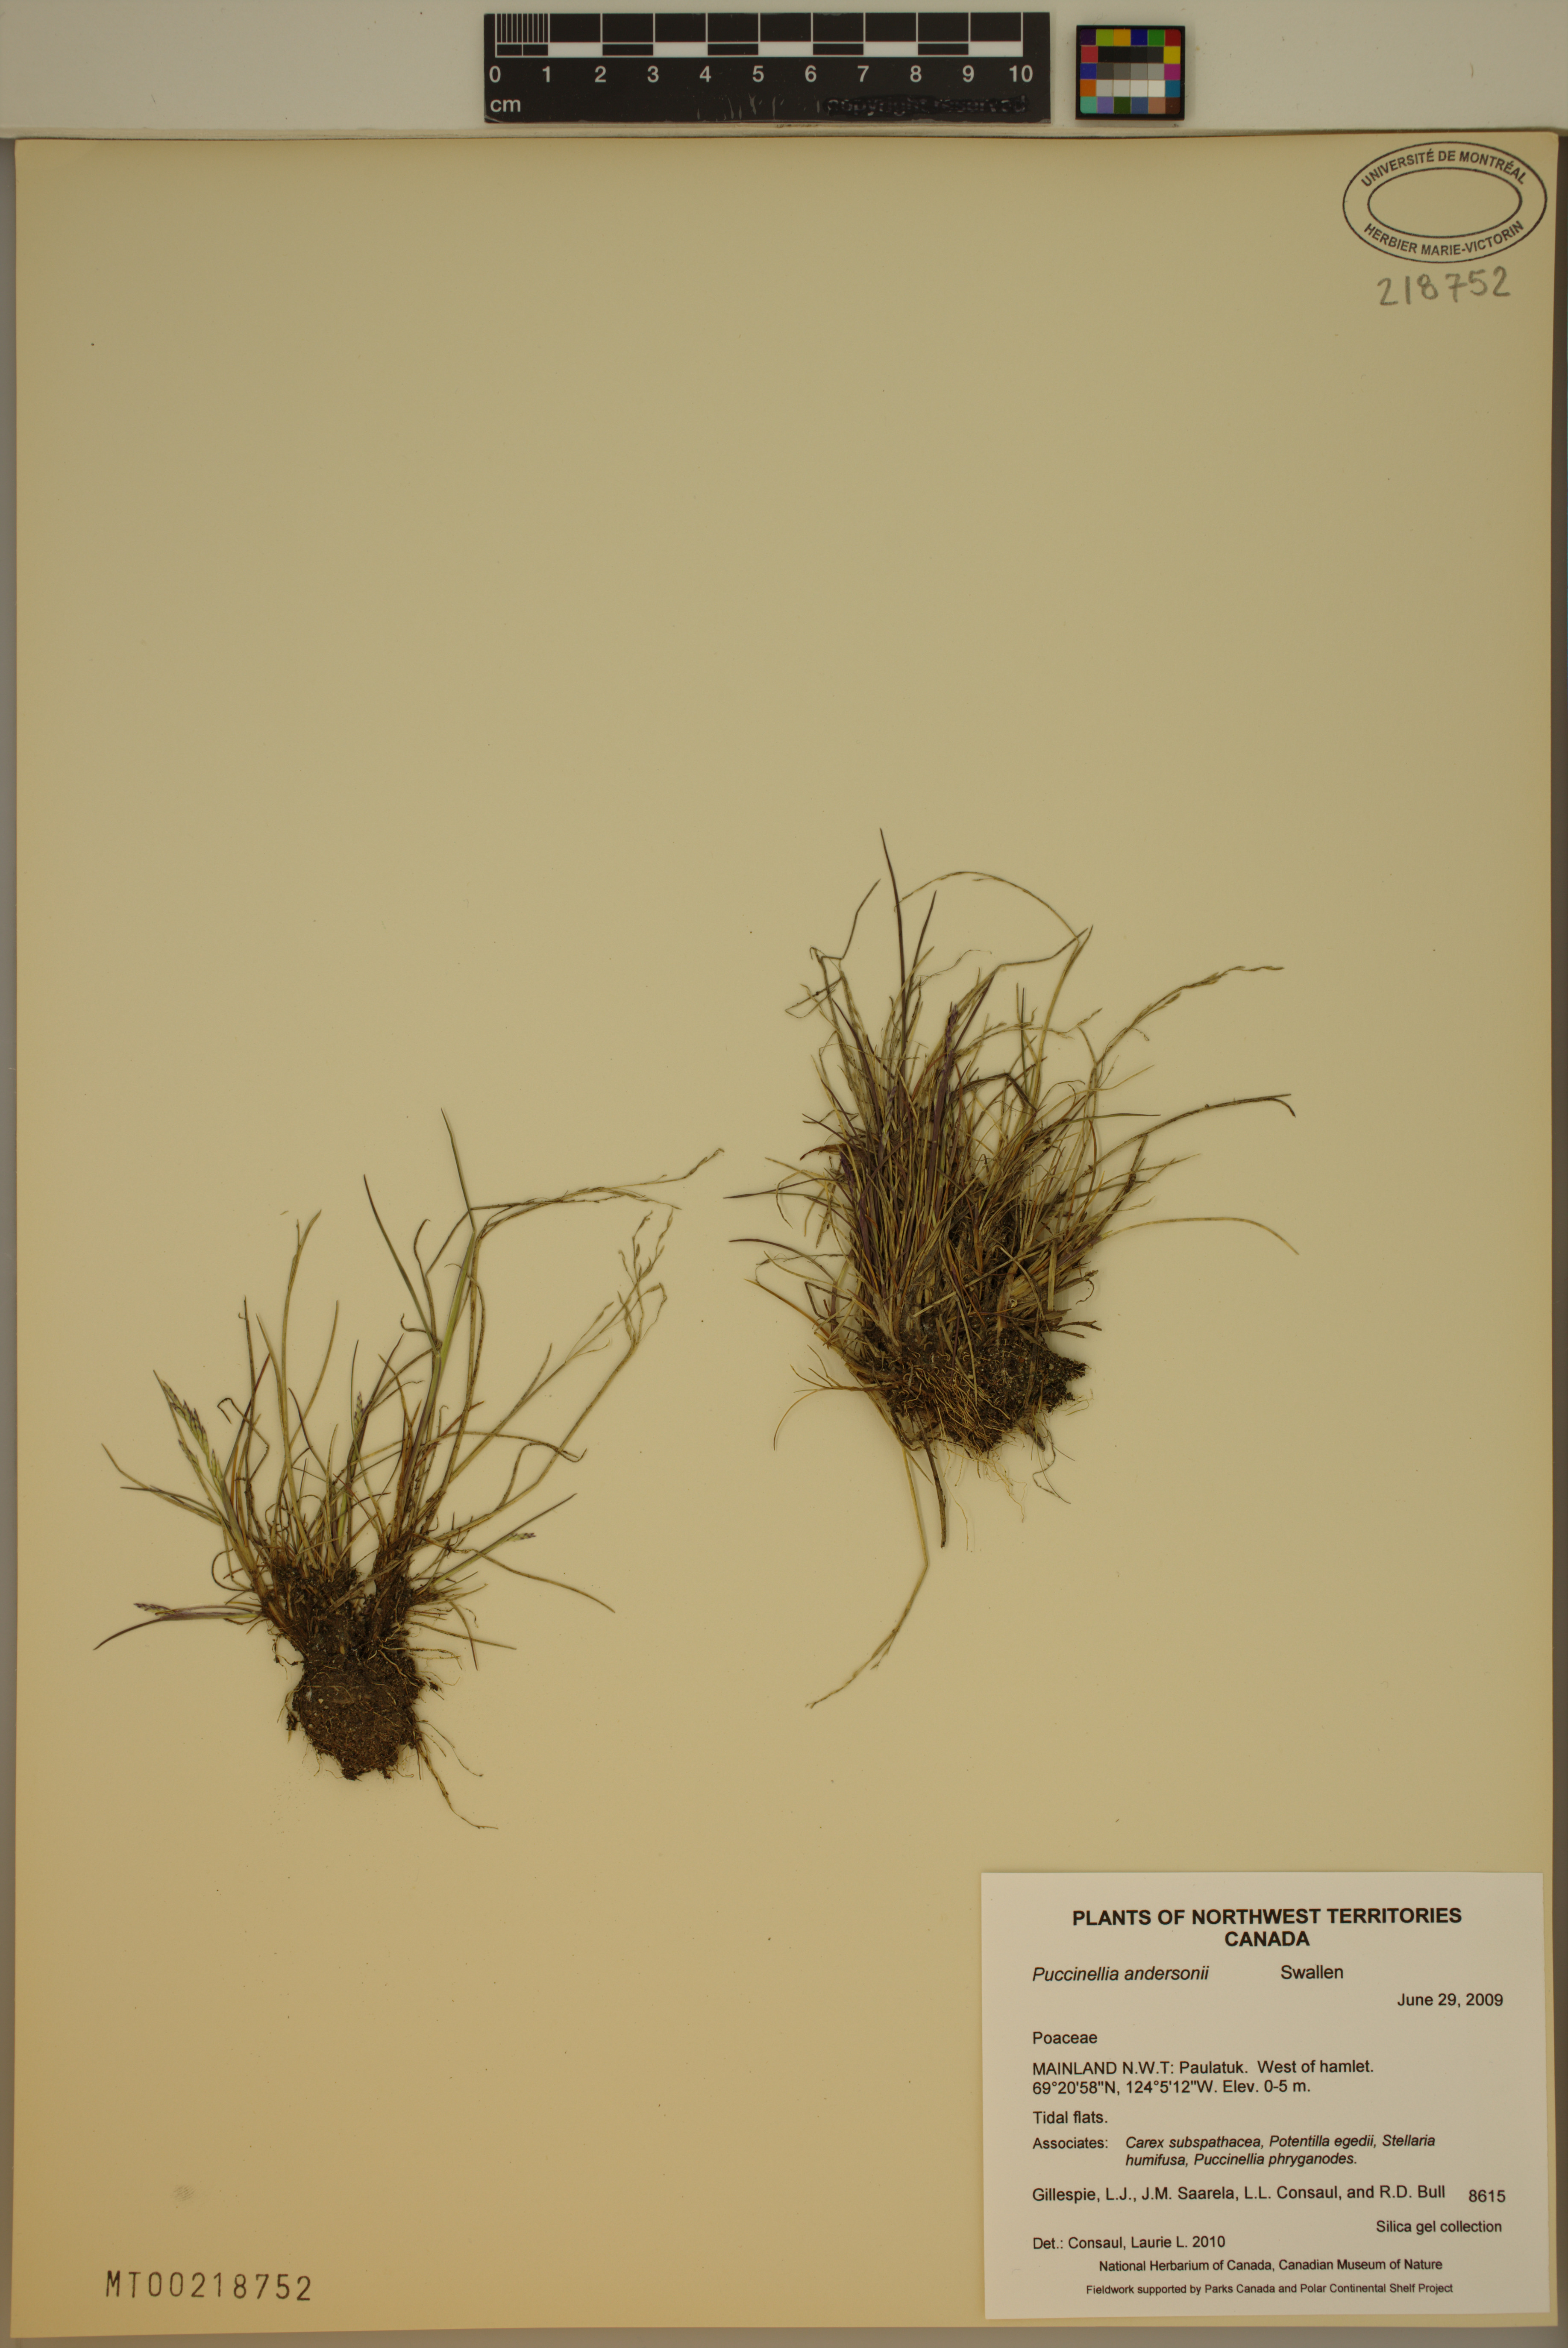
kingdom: Plantae
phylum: Tracheophyta
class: Liliopsida
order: Poales
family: Poaceae
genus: Puccinellia
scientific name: Puccinellia andersonii
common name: Anderson's alkali grass
